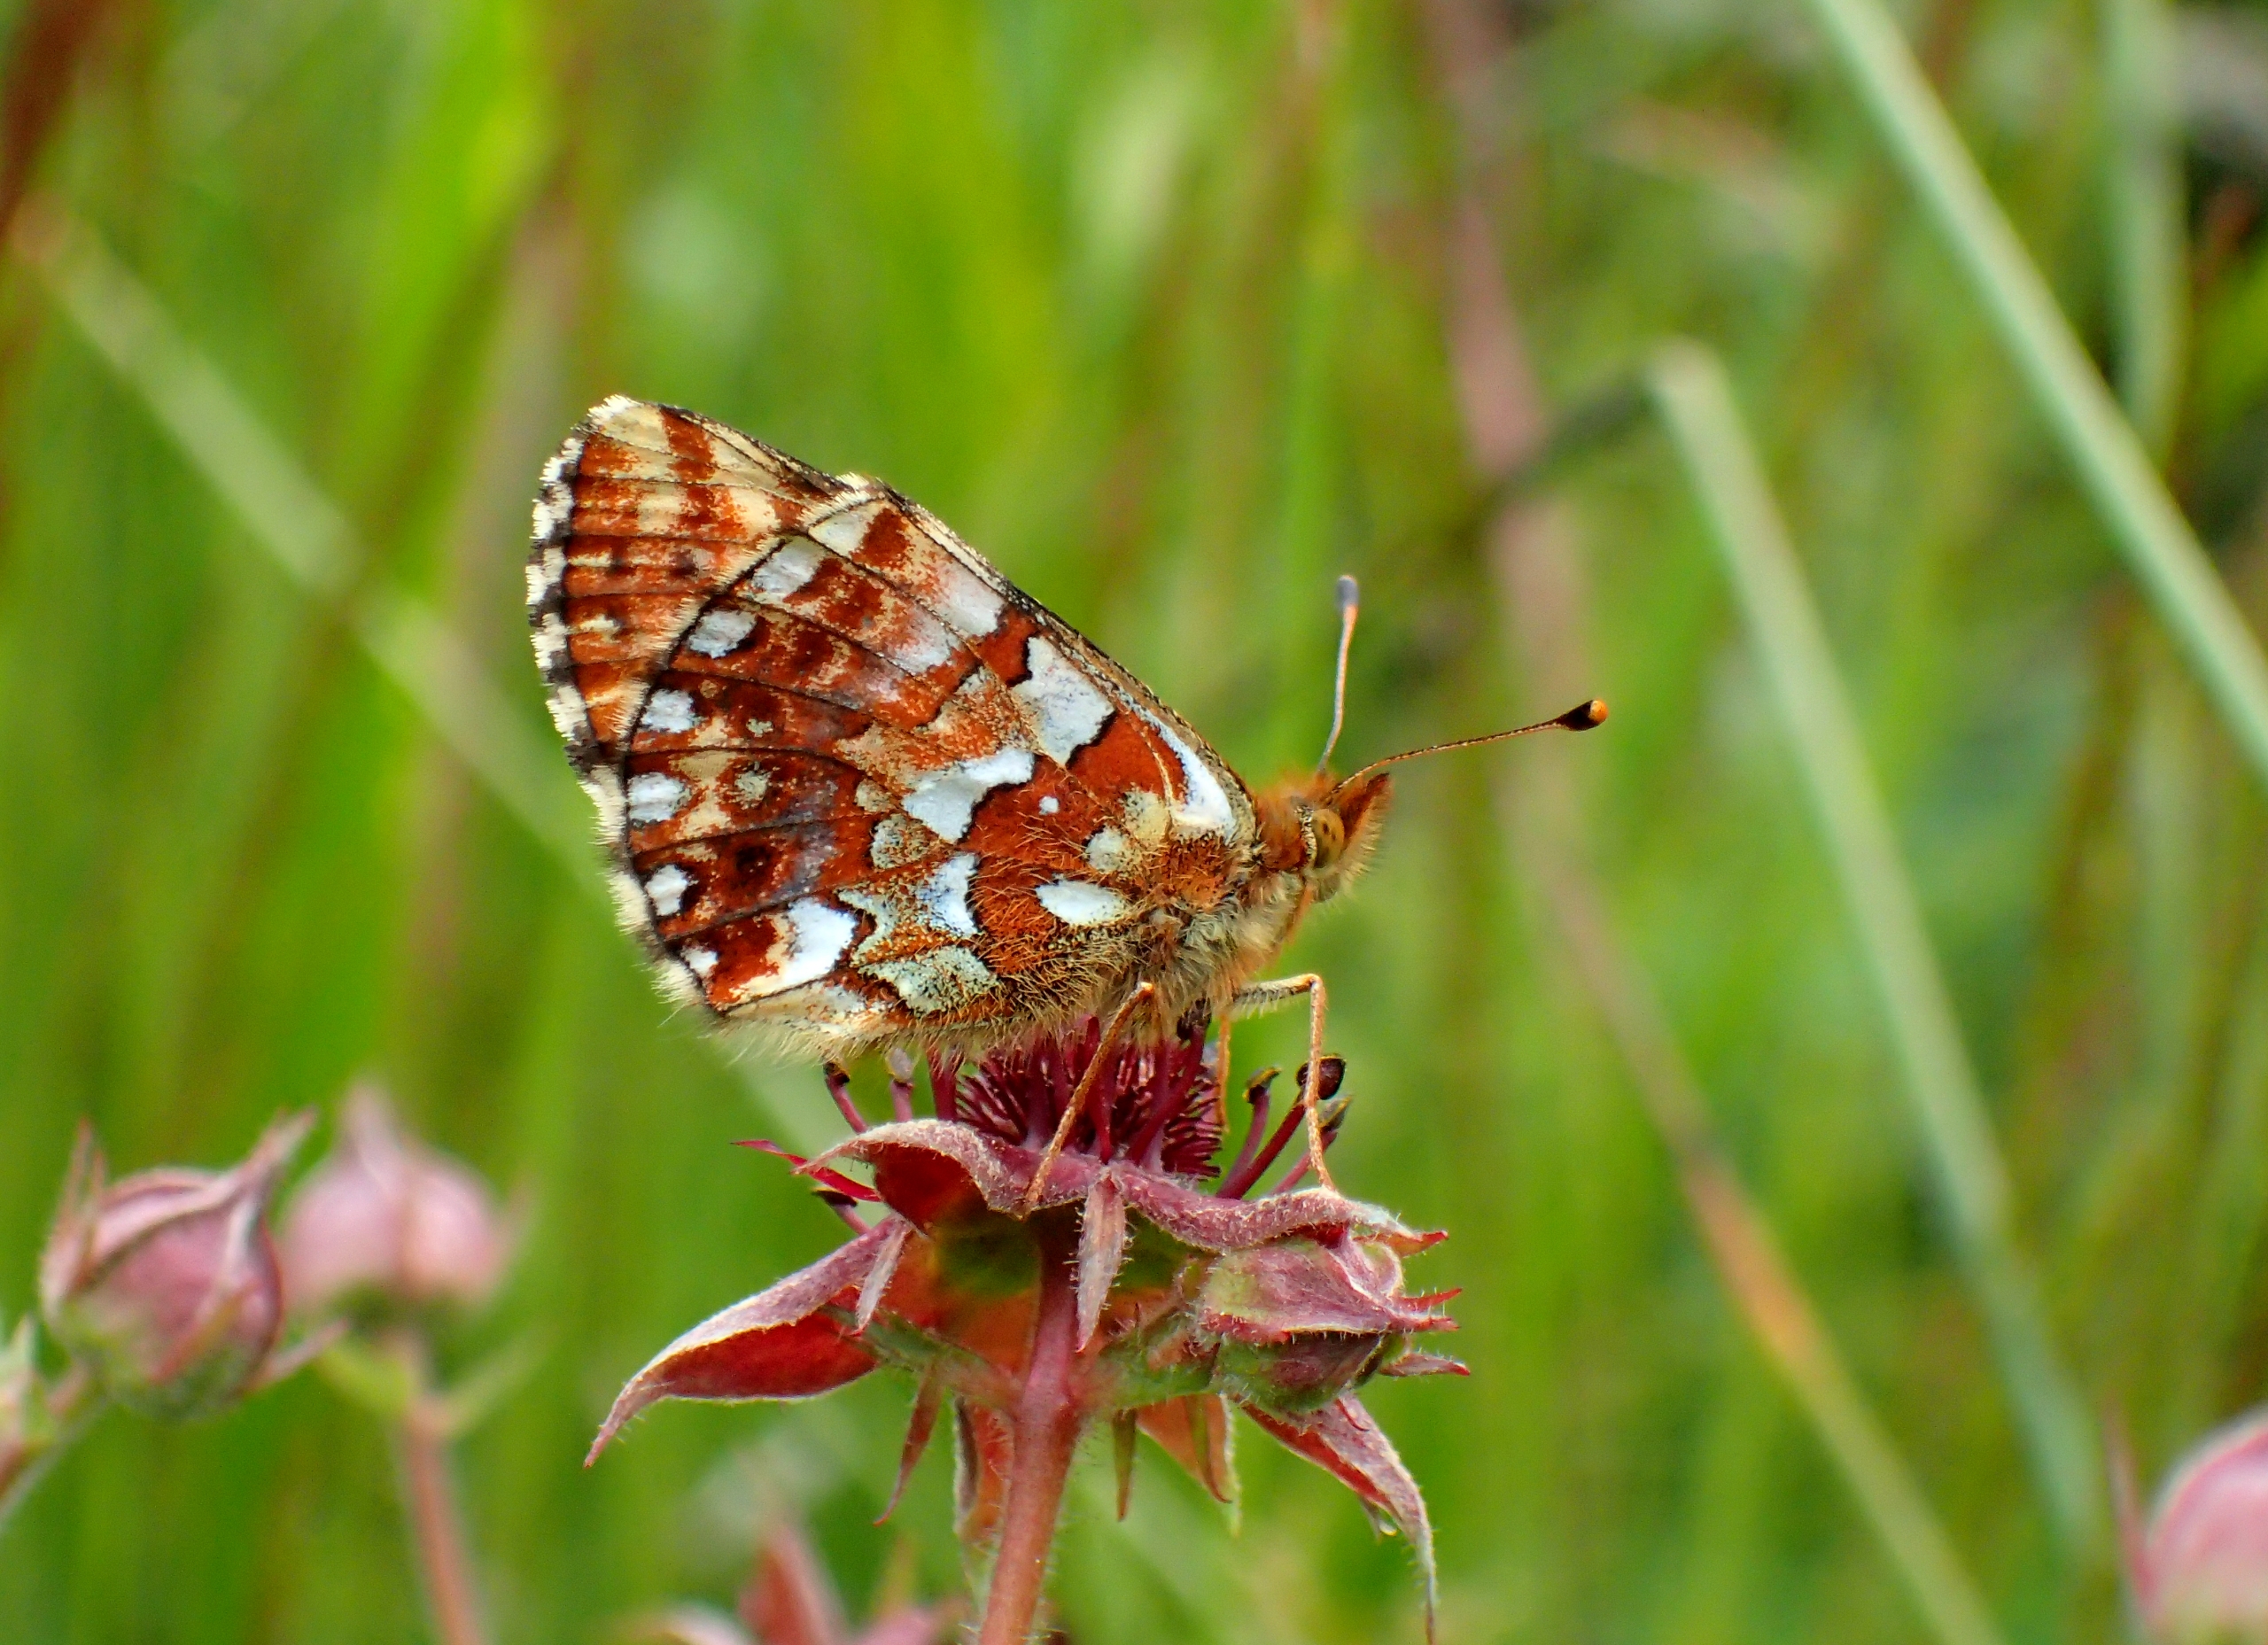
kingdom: Animalia
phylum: Arthropoda
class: Insecta
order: Lepidoptera
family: Nymphalidae
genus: Boloria
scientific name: Boloria aquilonaris
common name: Moseperlemorsommerfugl
